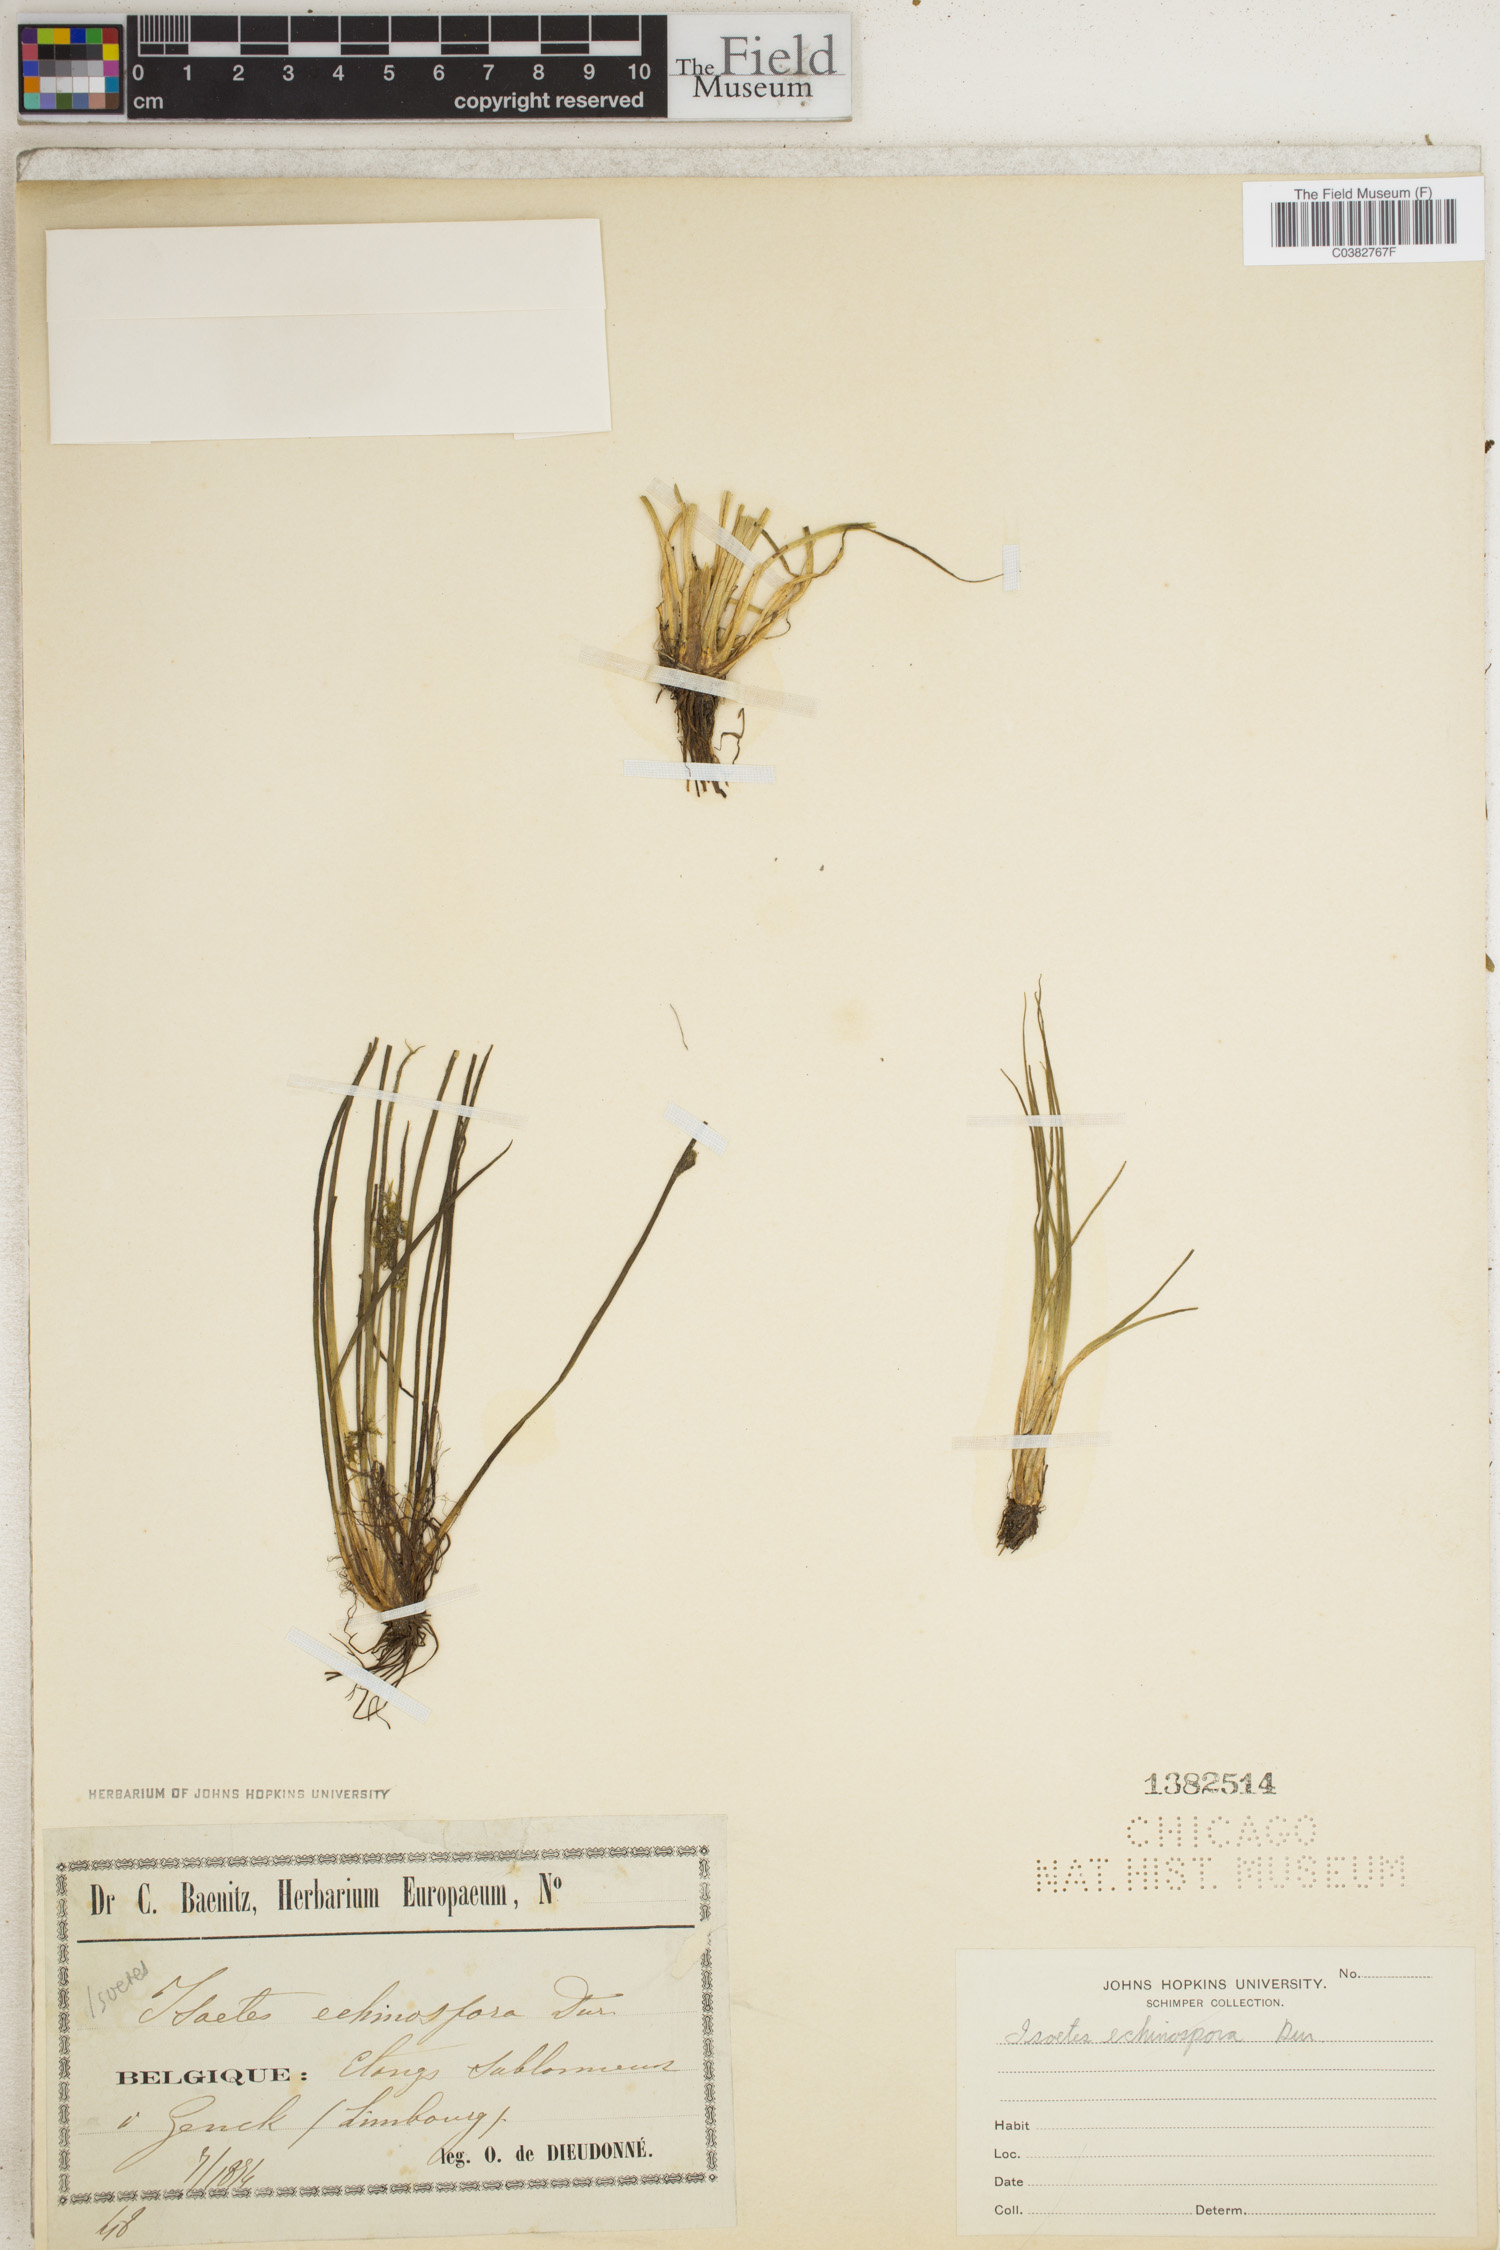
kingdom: Plantae
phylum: Tracheophyta
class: Lycopodiopsida
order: Isoetales
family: Isoetaceae
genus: Isoetes
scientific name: Isoetes echinospora
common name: Spring quillwort
